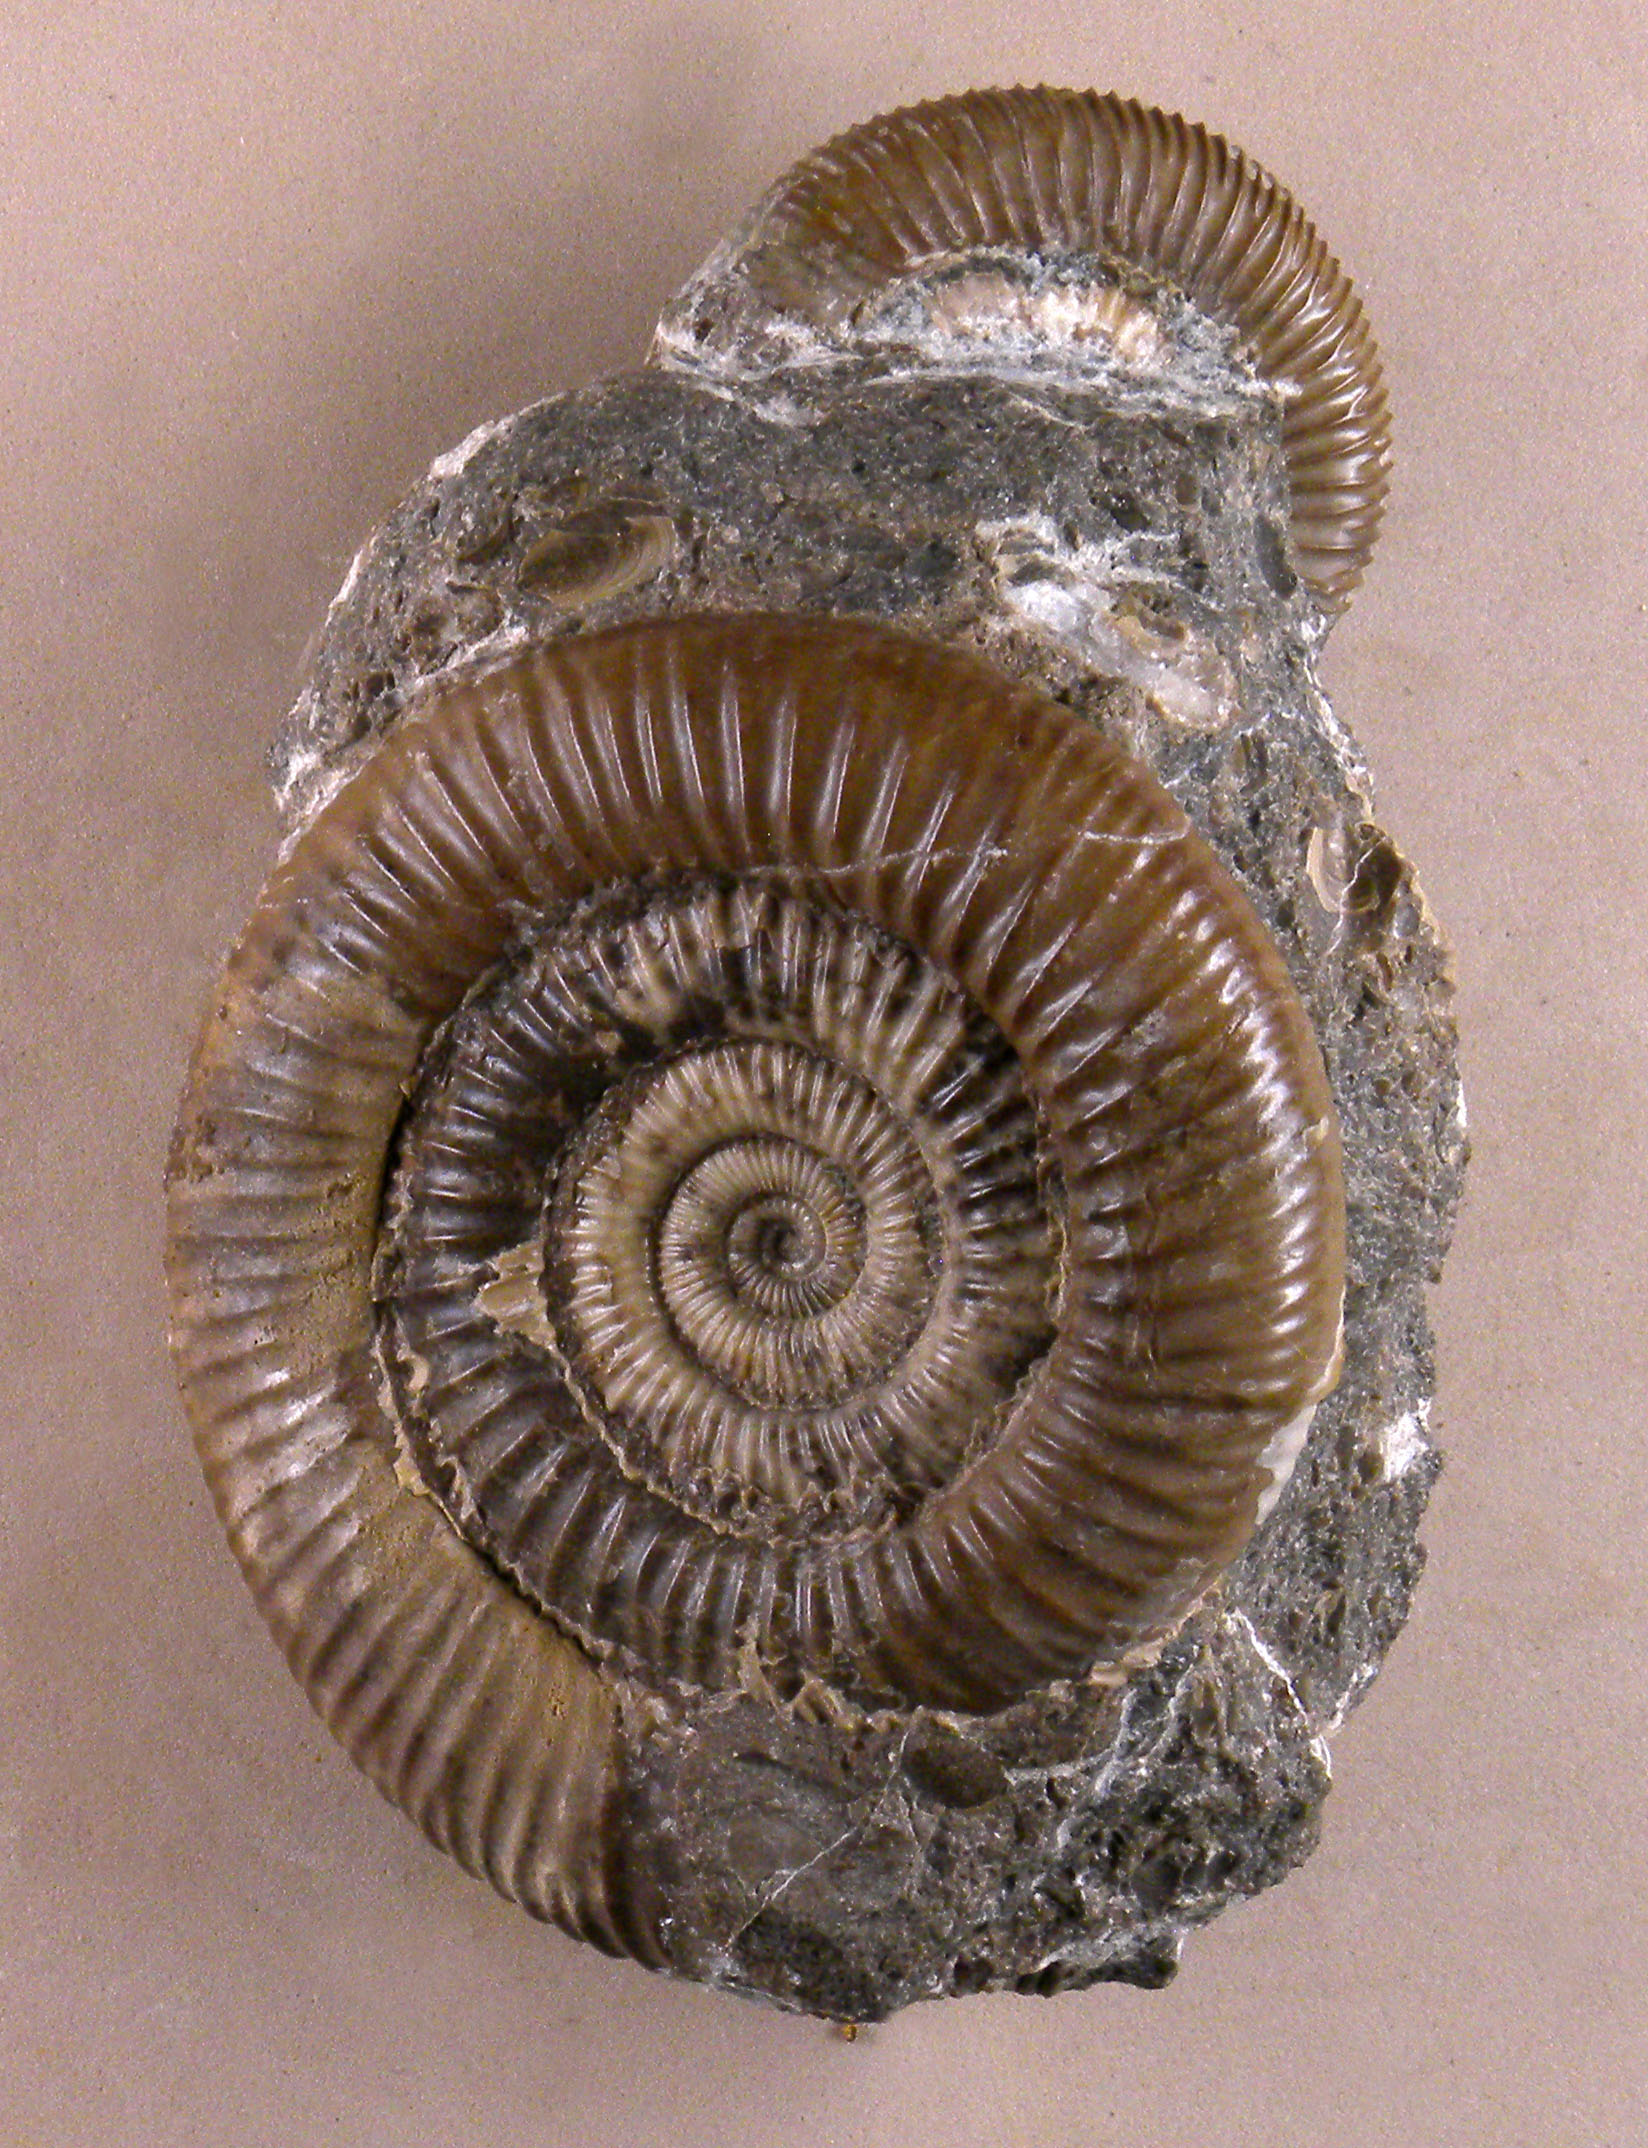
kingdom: Animalia
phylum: Mollusca
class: Cephalopoda
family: Dactylioceratidae
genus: Dactylioceras
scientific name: Dactylioceras
